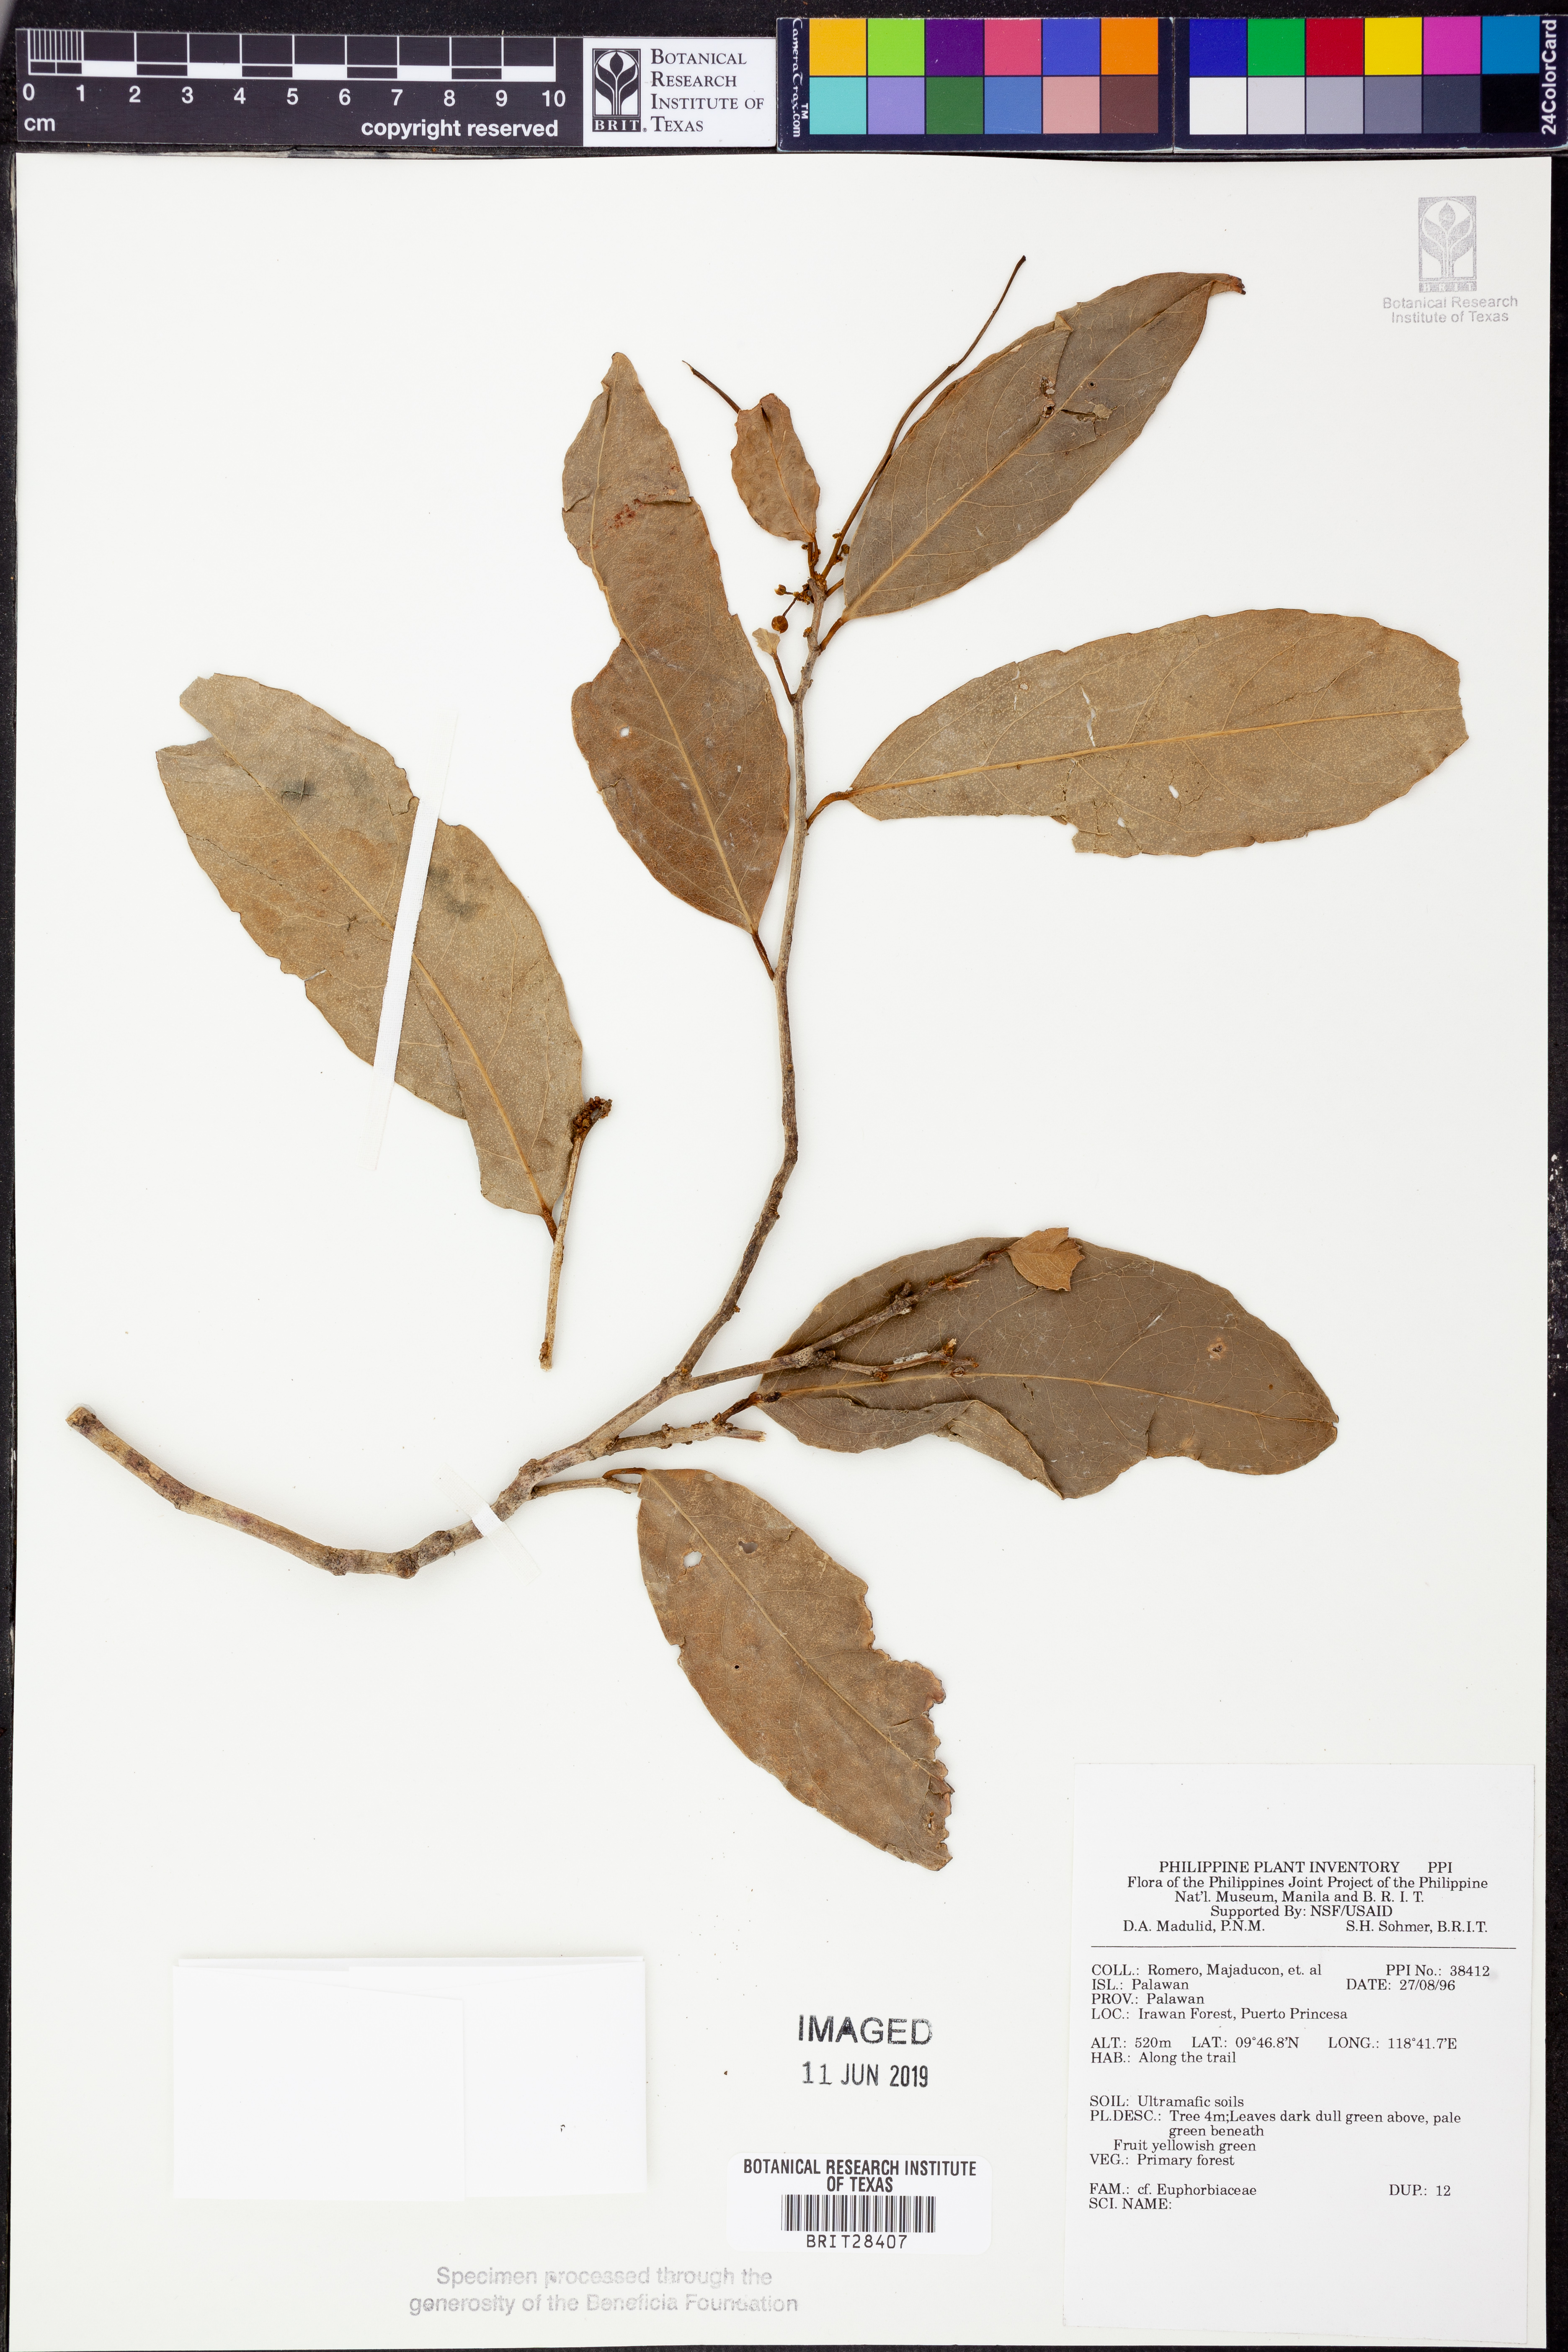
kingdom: Plantae
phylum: Tracheophyta
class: Magnoliopsida
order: Malpighiales
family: Euphorbiaceae
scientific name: Euphorbiaceae
